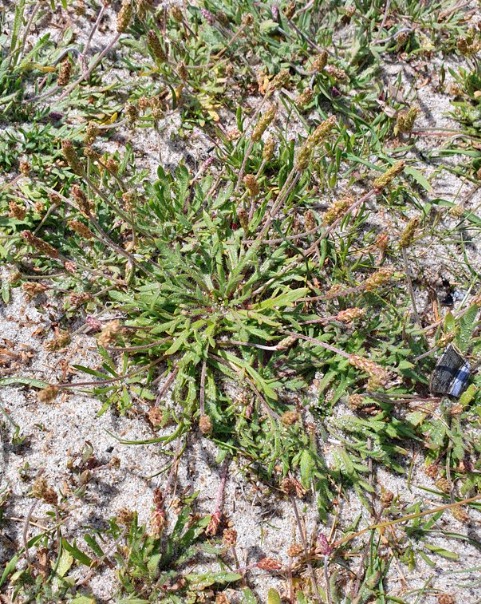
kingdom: Plantae
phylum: Tracheophyta
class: Magnoliopsida
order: Lamiales
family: Plantaginaceae
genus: Plantago
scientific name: Plantago coronopus
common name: Fliget vejbred
